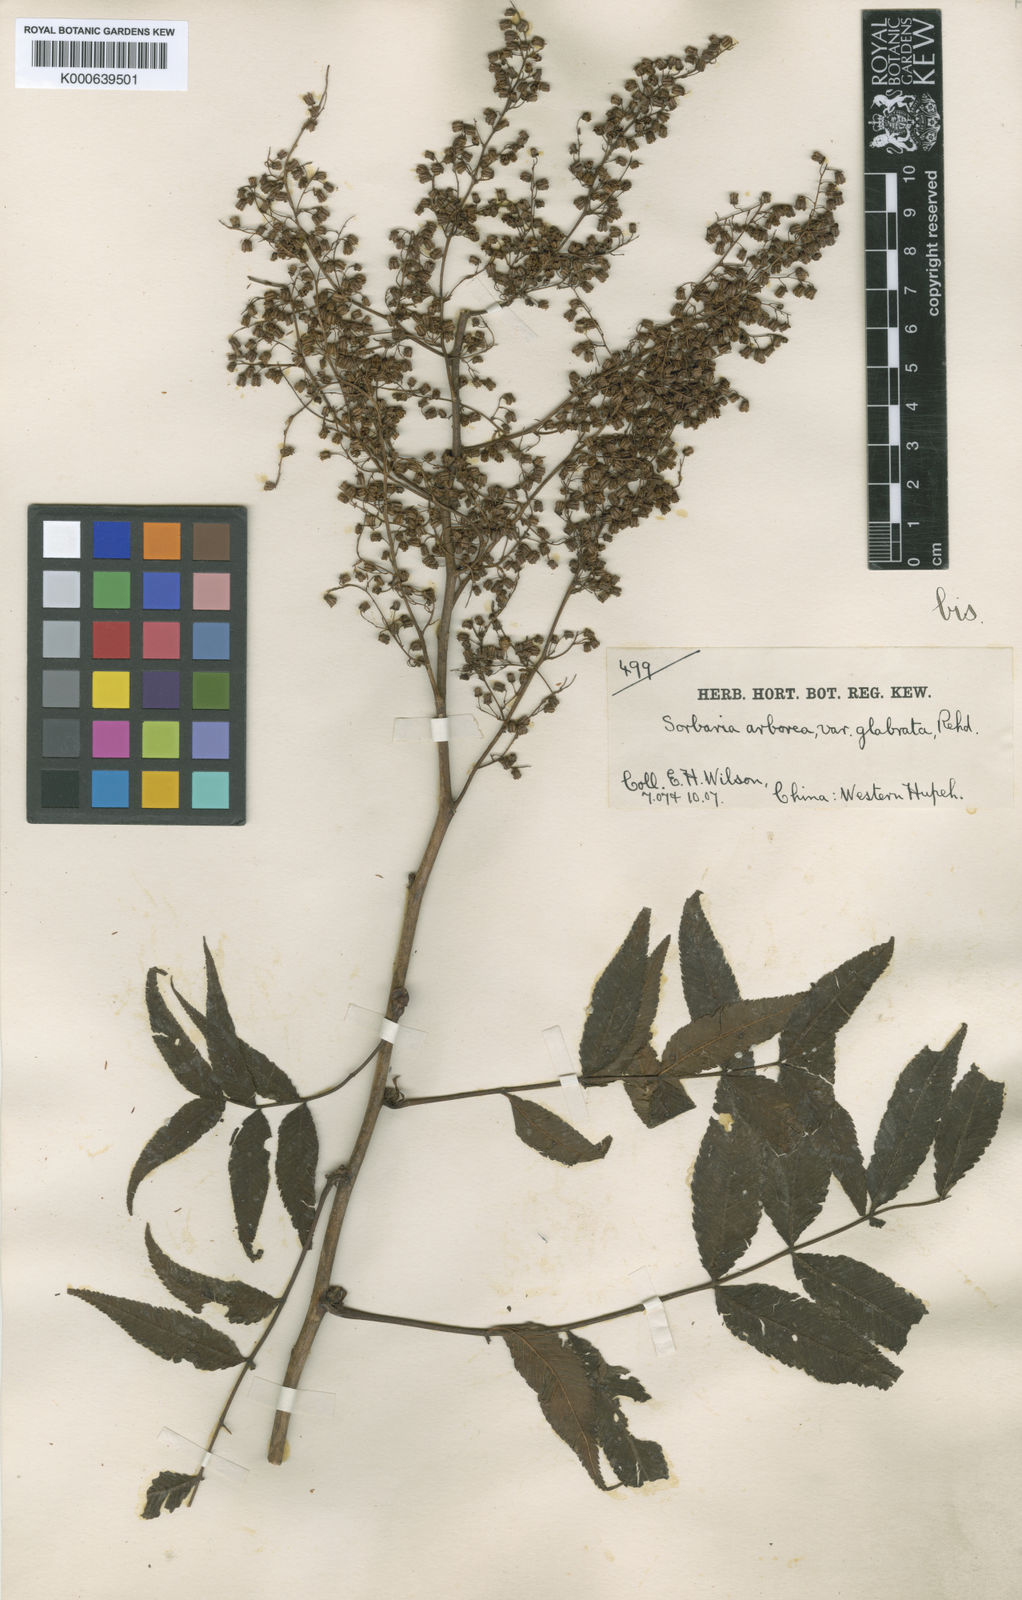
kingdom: Plantae
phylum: Tracheophyta
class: Magnoliopsida
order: Rosales
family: Rosaceae
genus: Sorbaria
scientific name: Sorbaria kirilowii
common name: Chinese sorbaria
